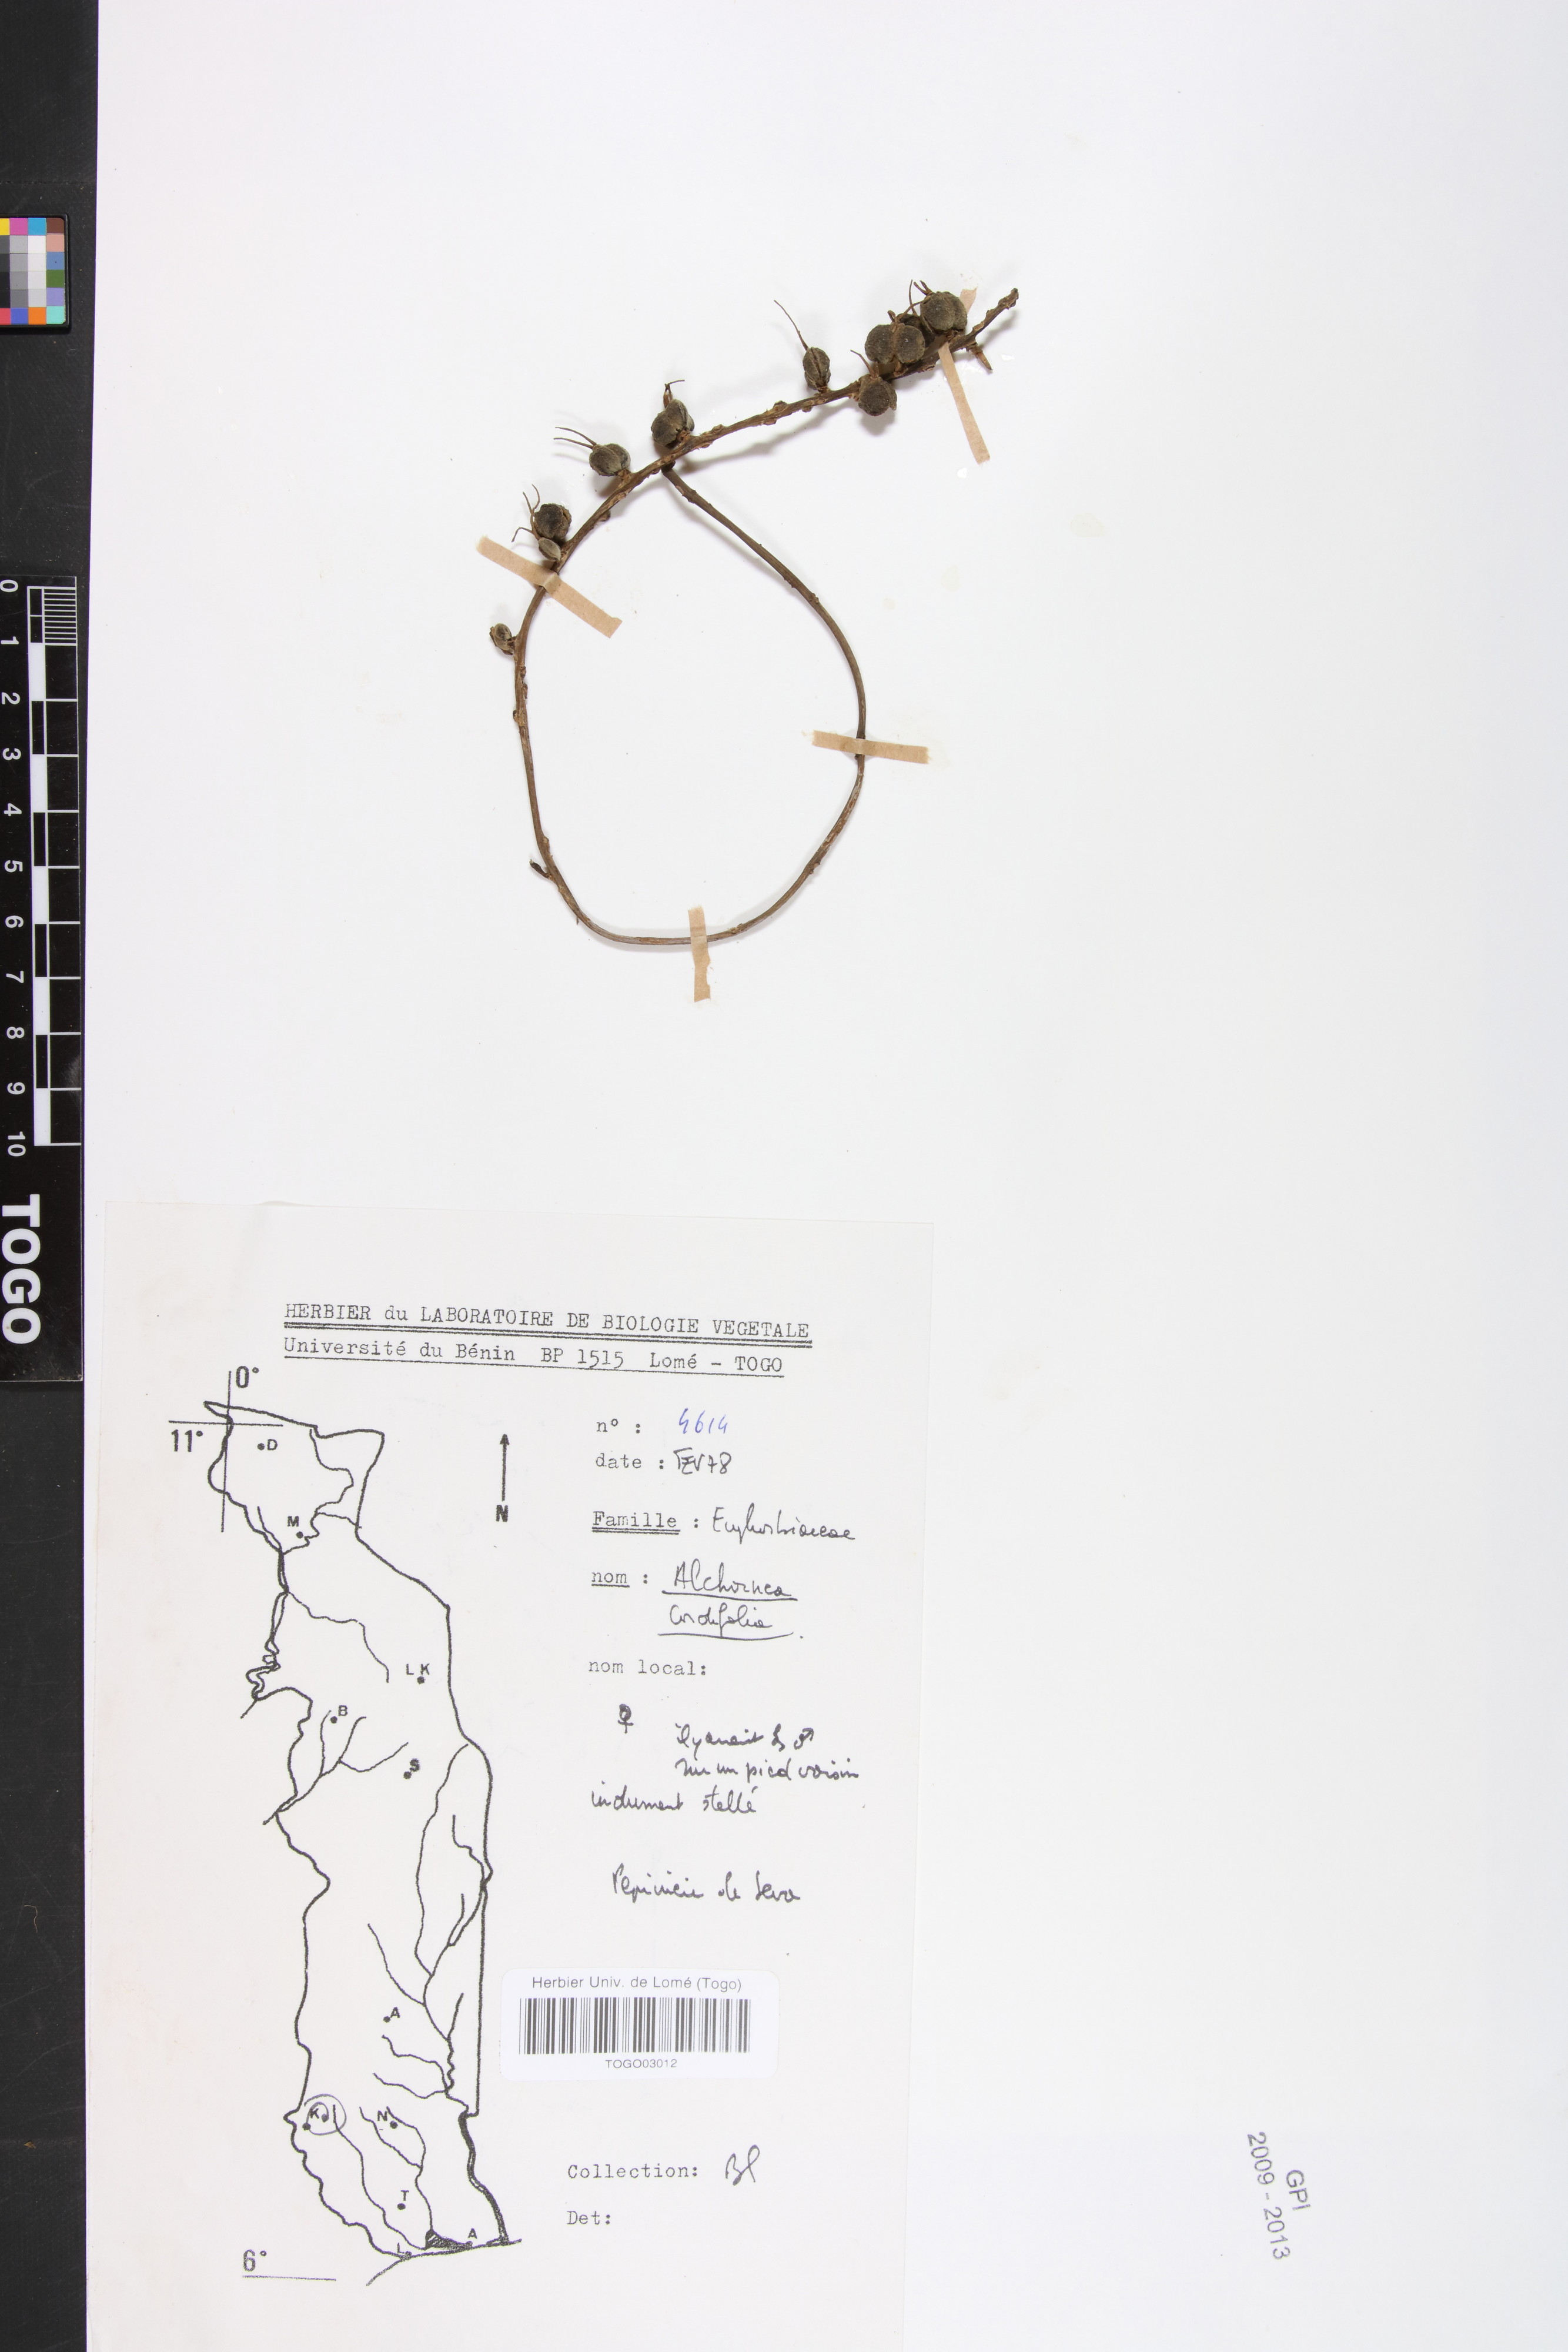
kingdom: Plantae
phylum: Tracheophyta
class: Magnoliopsida
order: Malpighiales
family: Euphorbiaceae
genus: Alchornea
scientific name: Alchornea cordifolia
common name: Christmasbush
